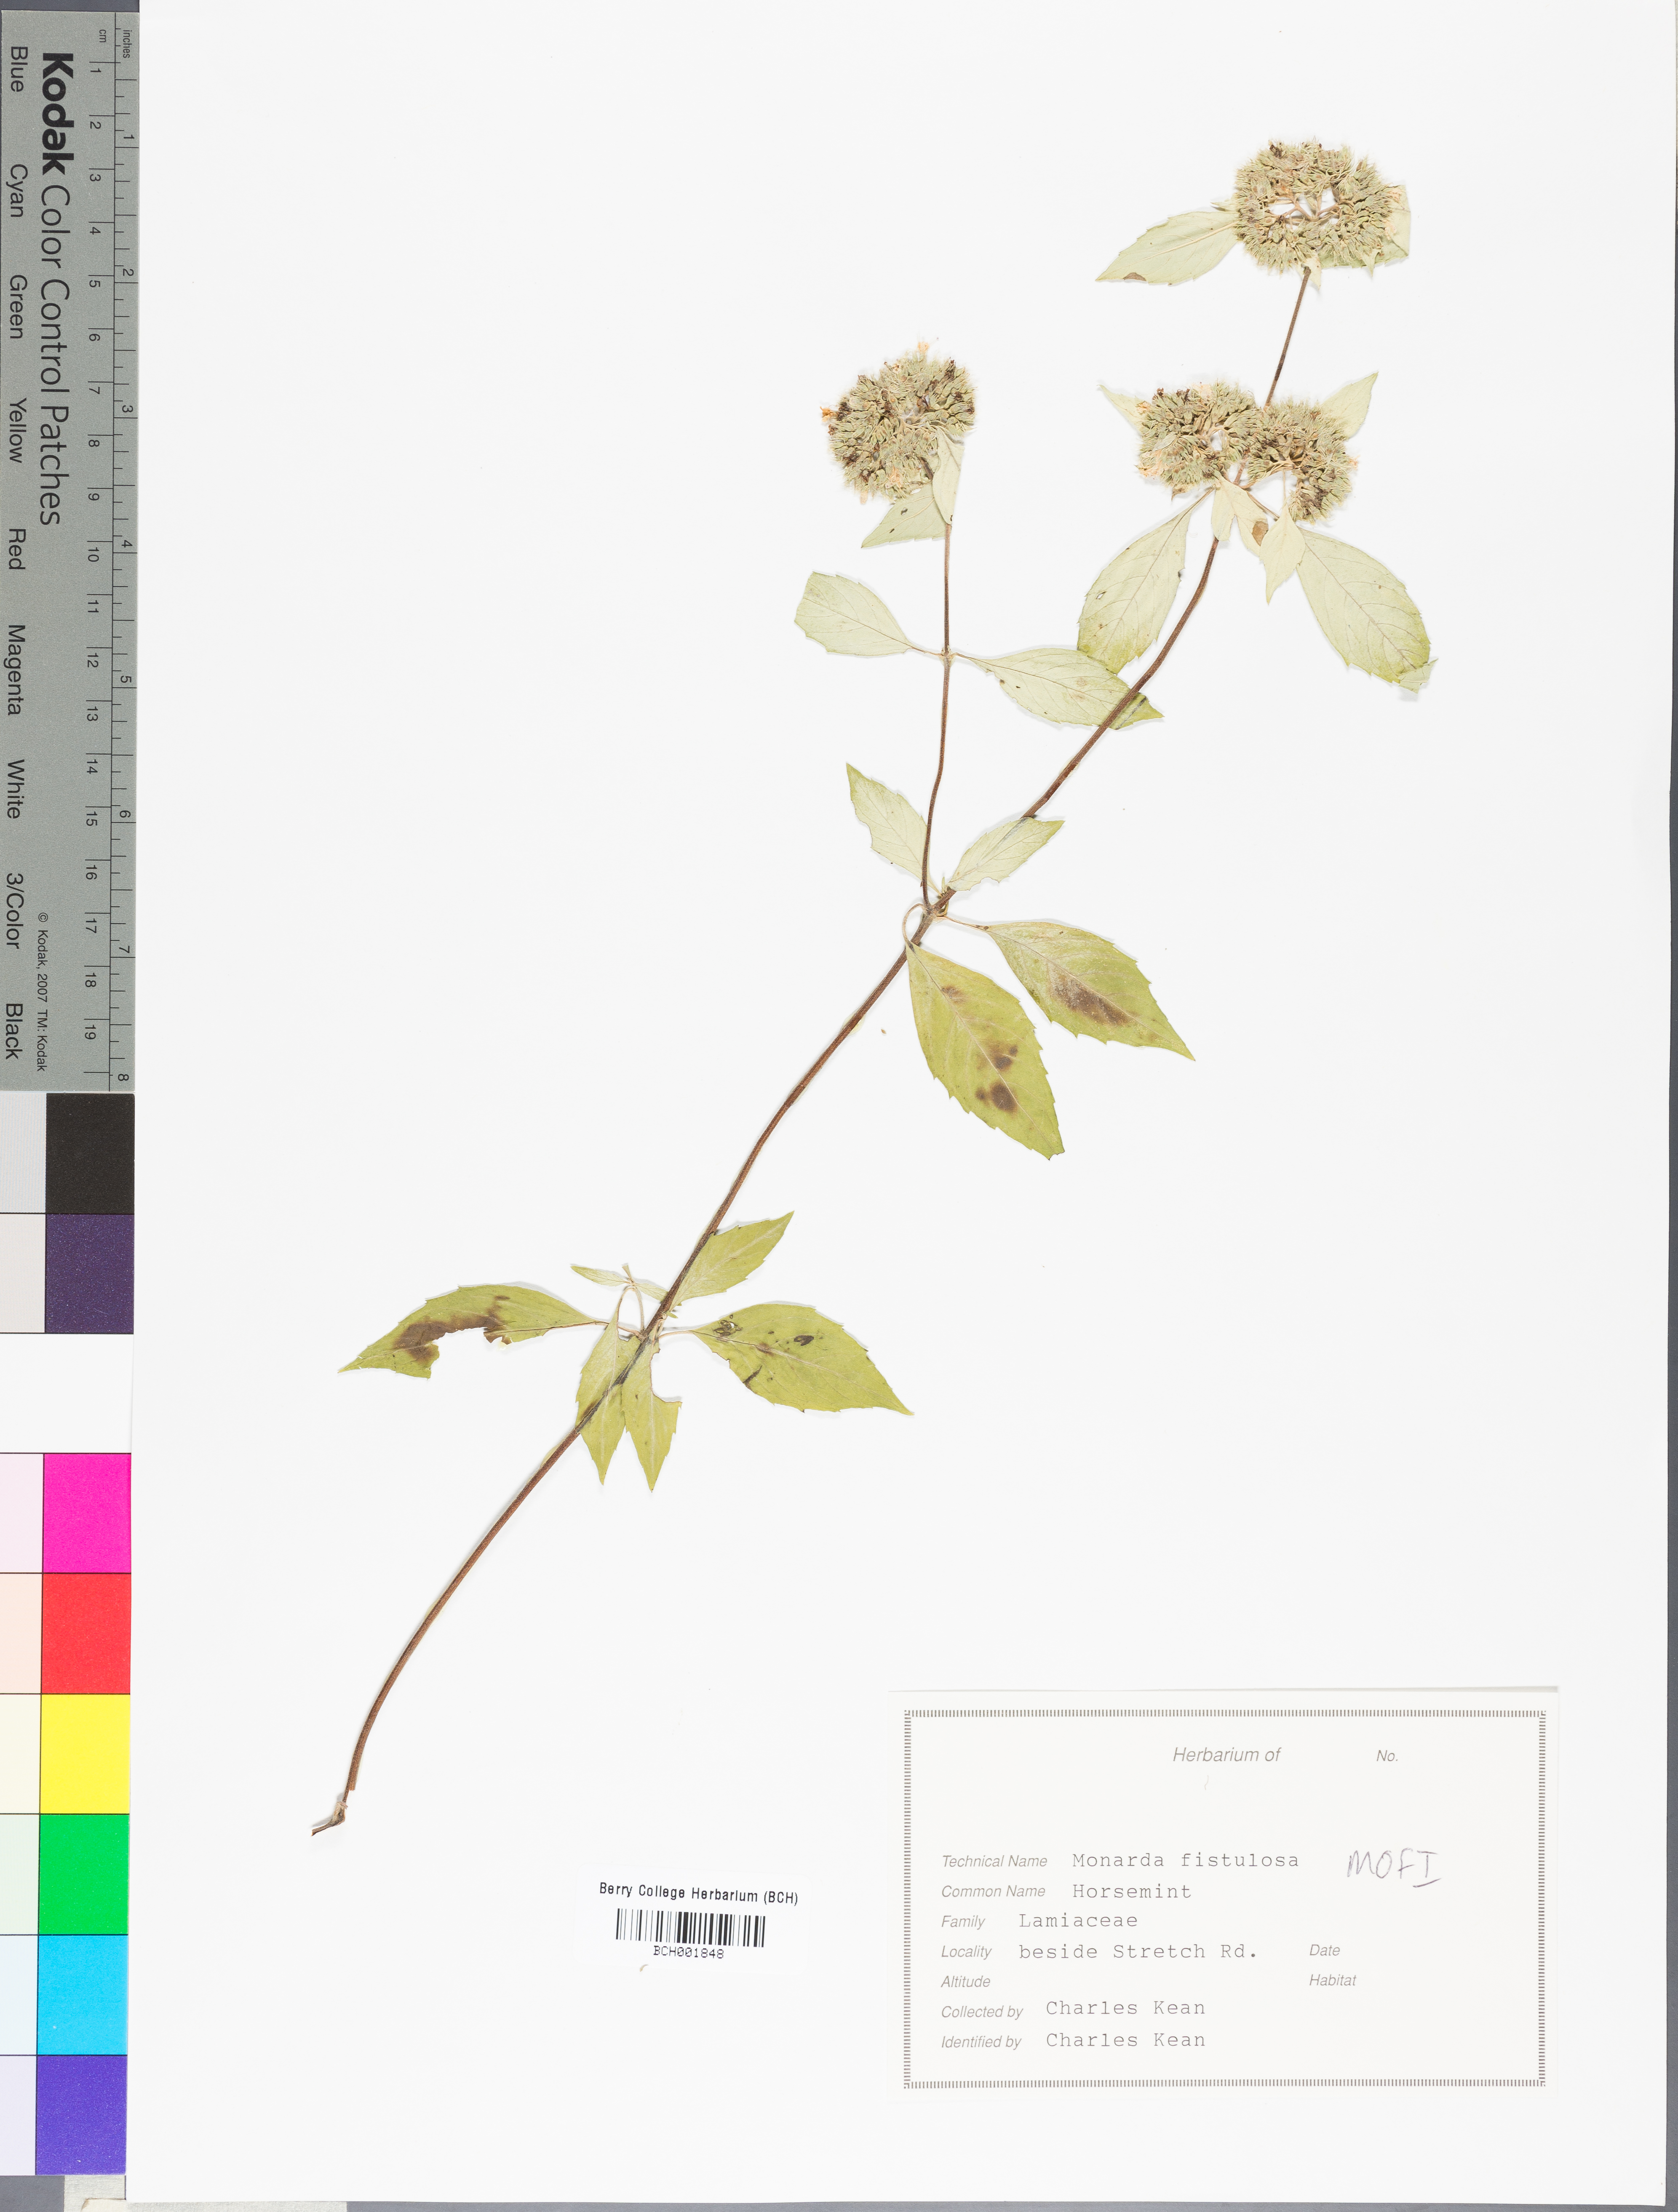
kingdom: Plantae
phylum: Tracheophyta
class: Magnoliopsida
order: Lamiales
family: Lamiaceae
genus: Monarda
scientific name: Monarda fistulosa
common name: Purple beebalm
